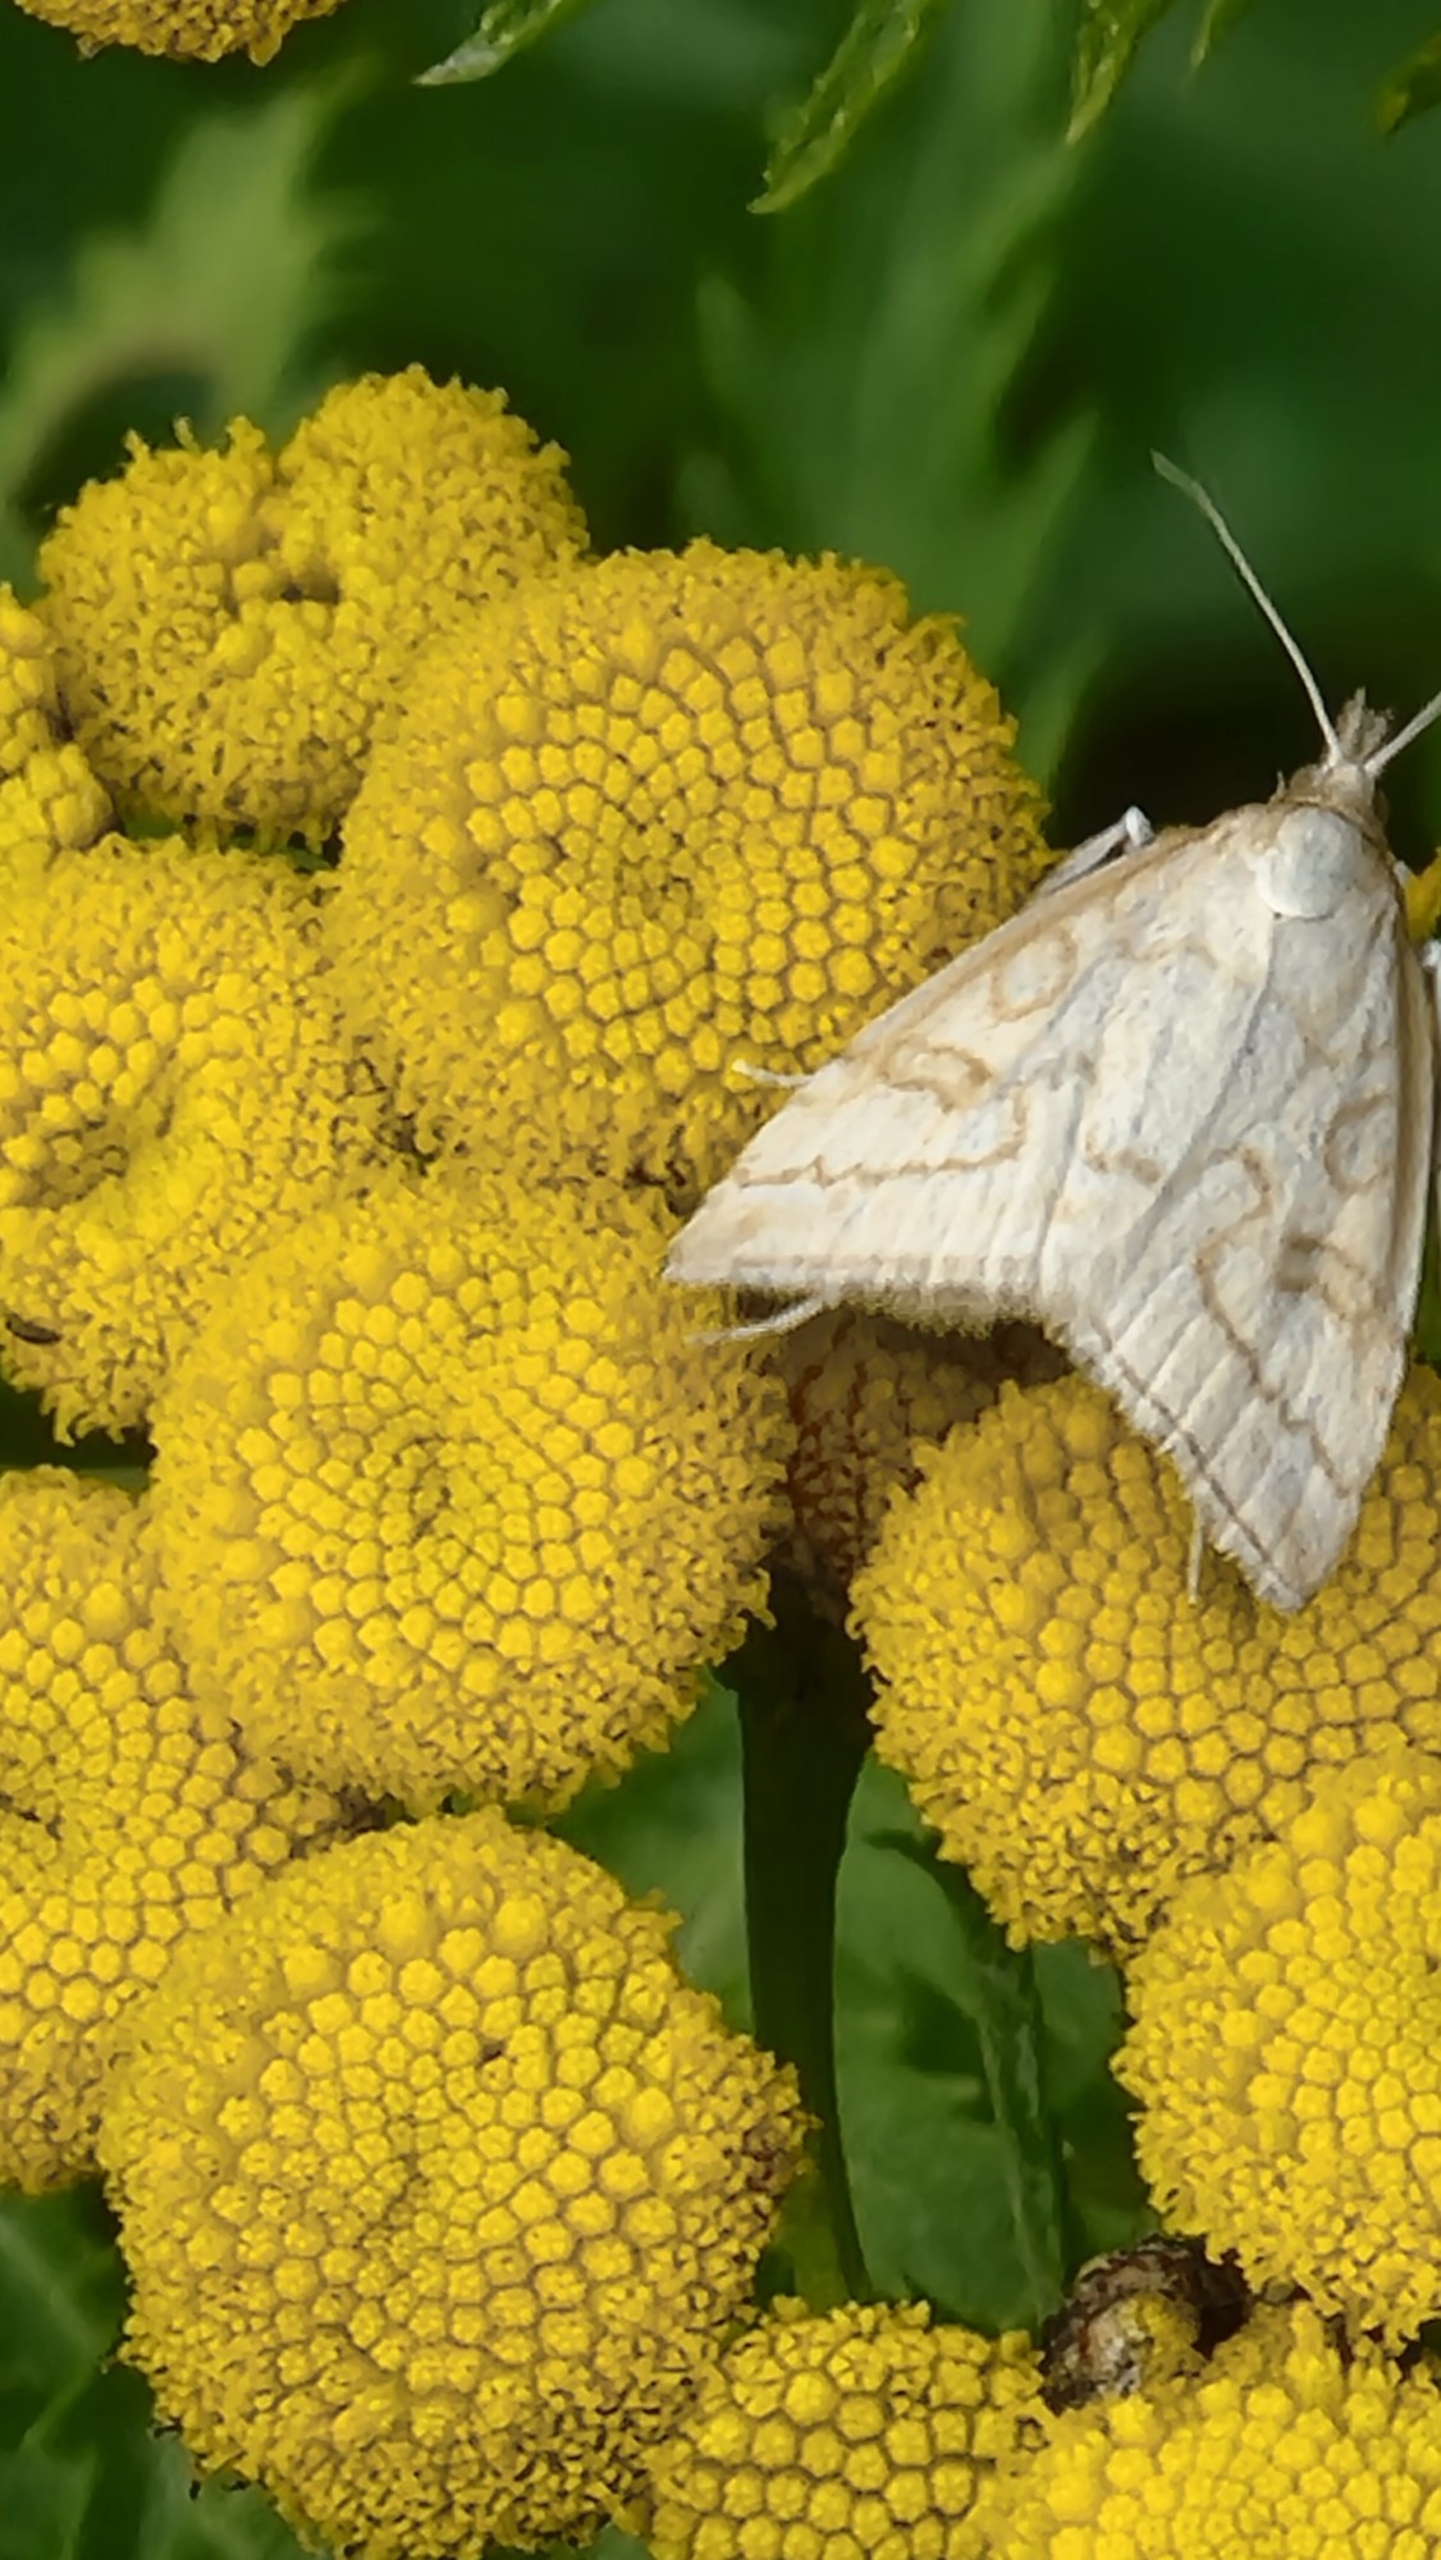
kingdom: Animalia
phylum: Arthropoda
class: Insecta
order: Lepidoptera
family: Crambidae
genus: Udea
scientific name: Udea lutealis
